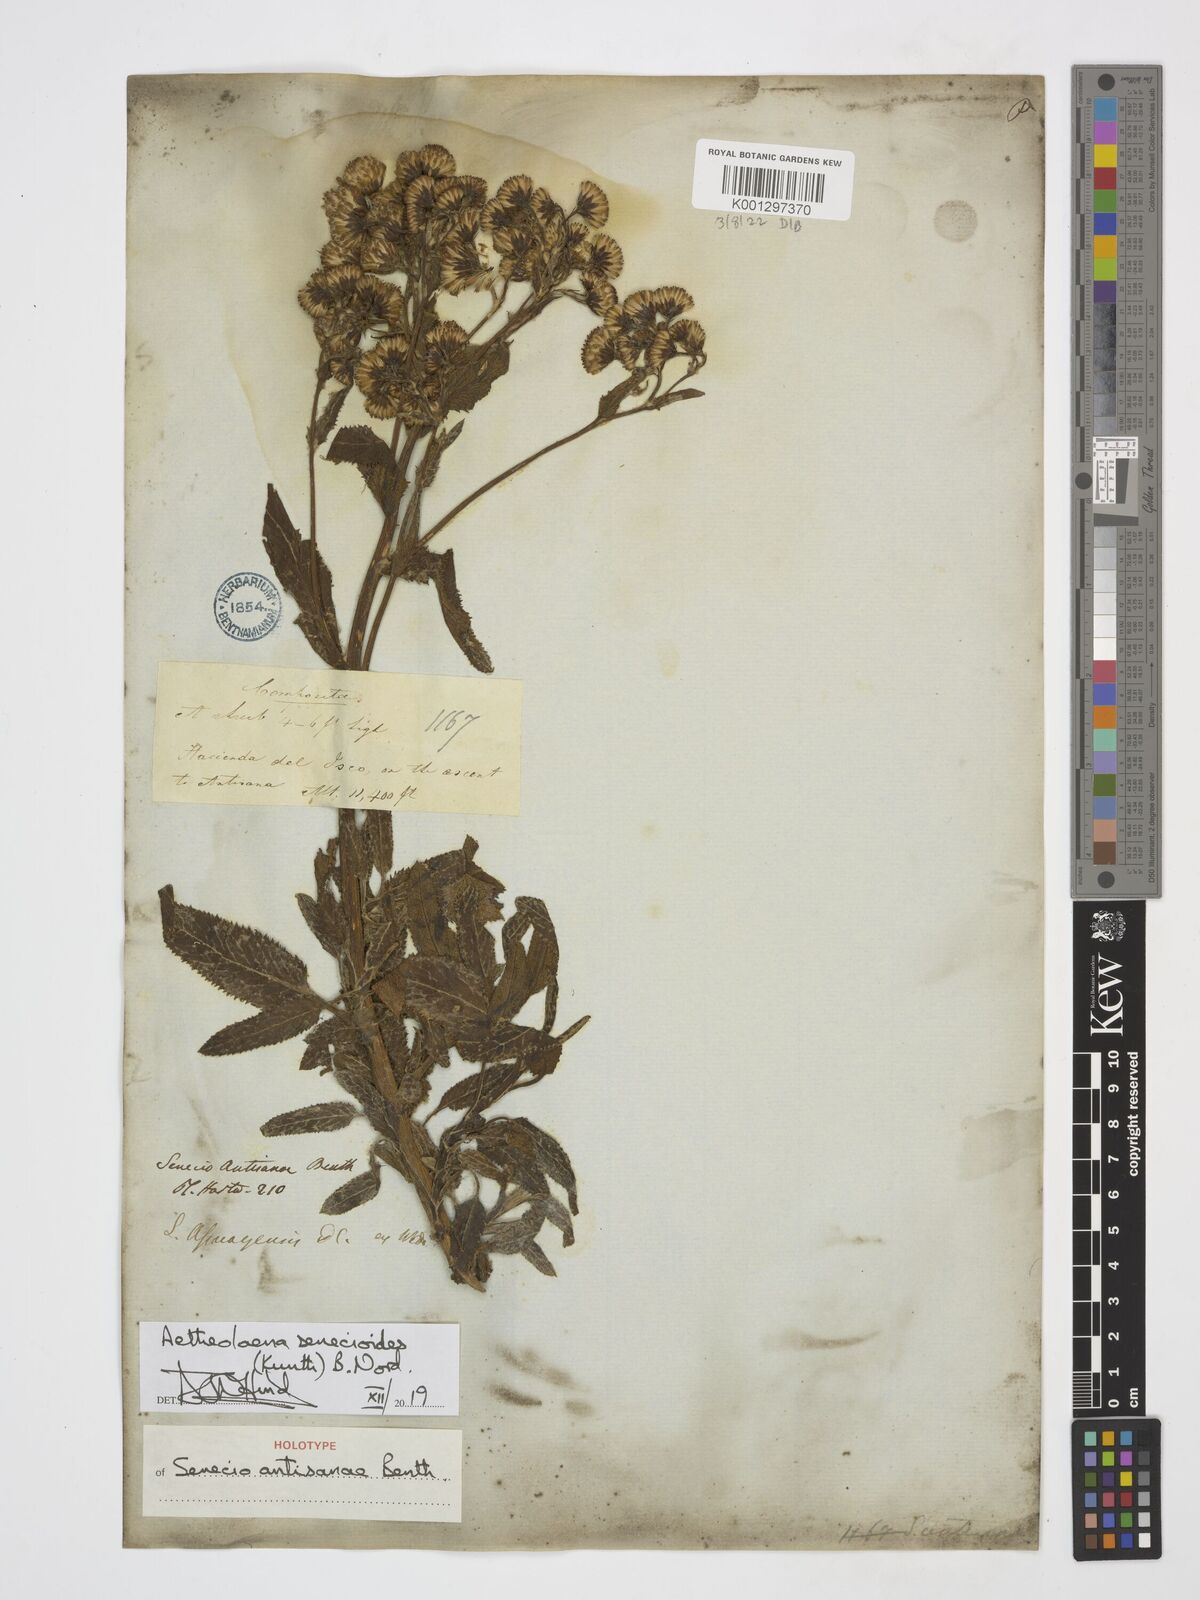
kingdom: Plantae
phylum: Tracheophyta
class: Magnoliopsida
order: Asterales
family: Asteraceae
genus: Aetheolaena
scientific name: Aetheolaena senecioides
